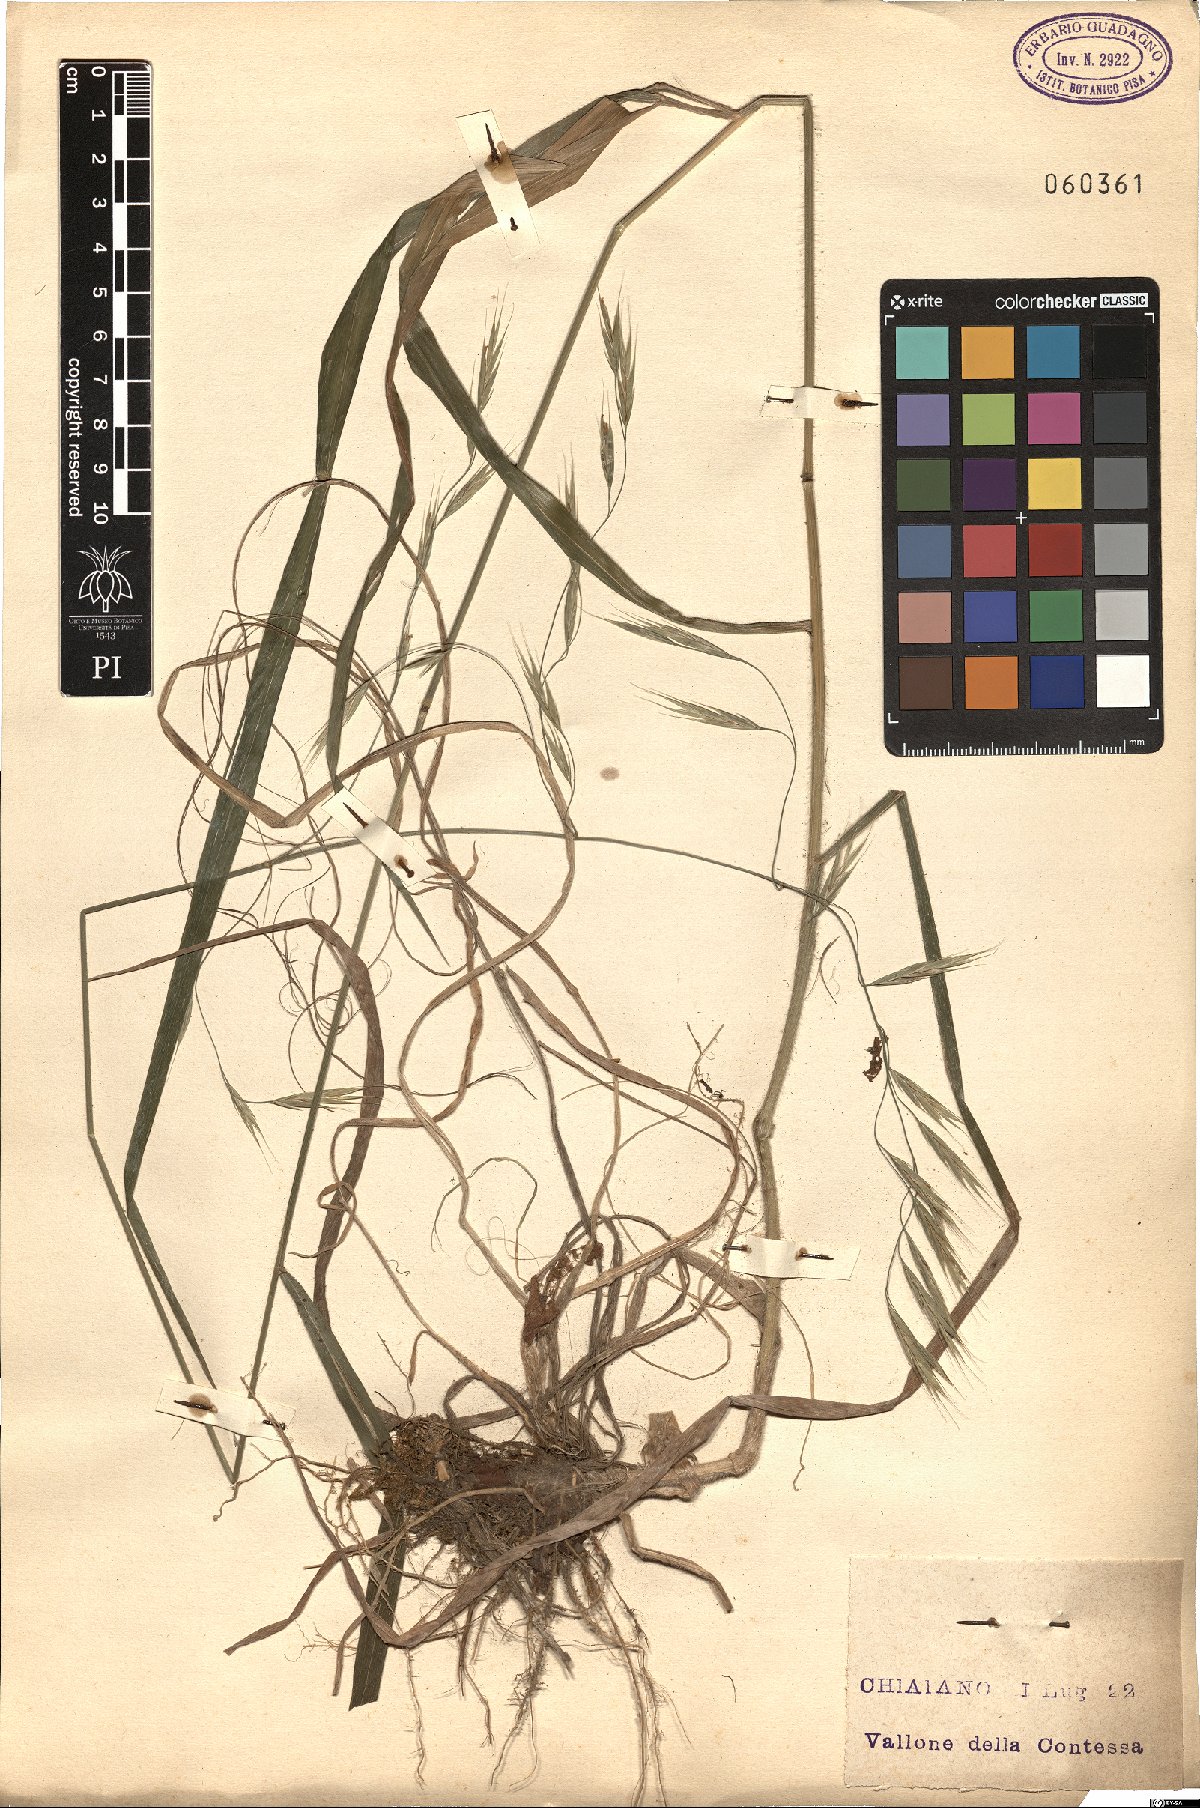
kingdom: Plantae
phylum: Tracheophyta
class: Liliopsida
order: Poales
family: Poaceae
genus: Bromus
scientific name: Bromus ramosus
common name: Hairy brome
